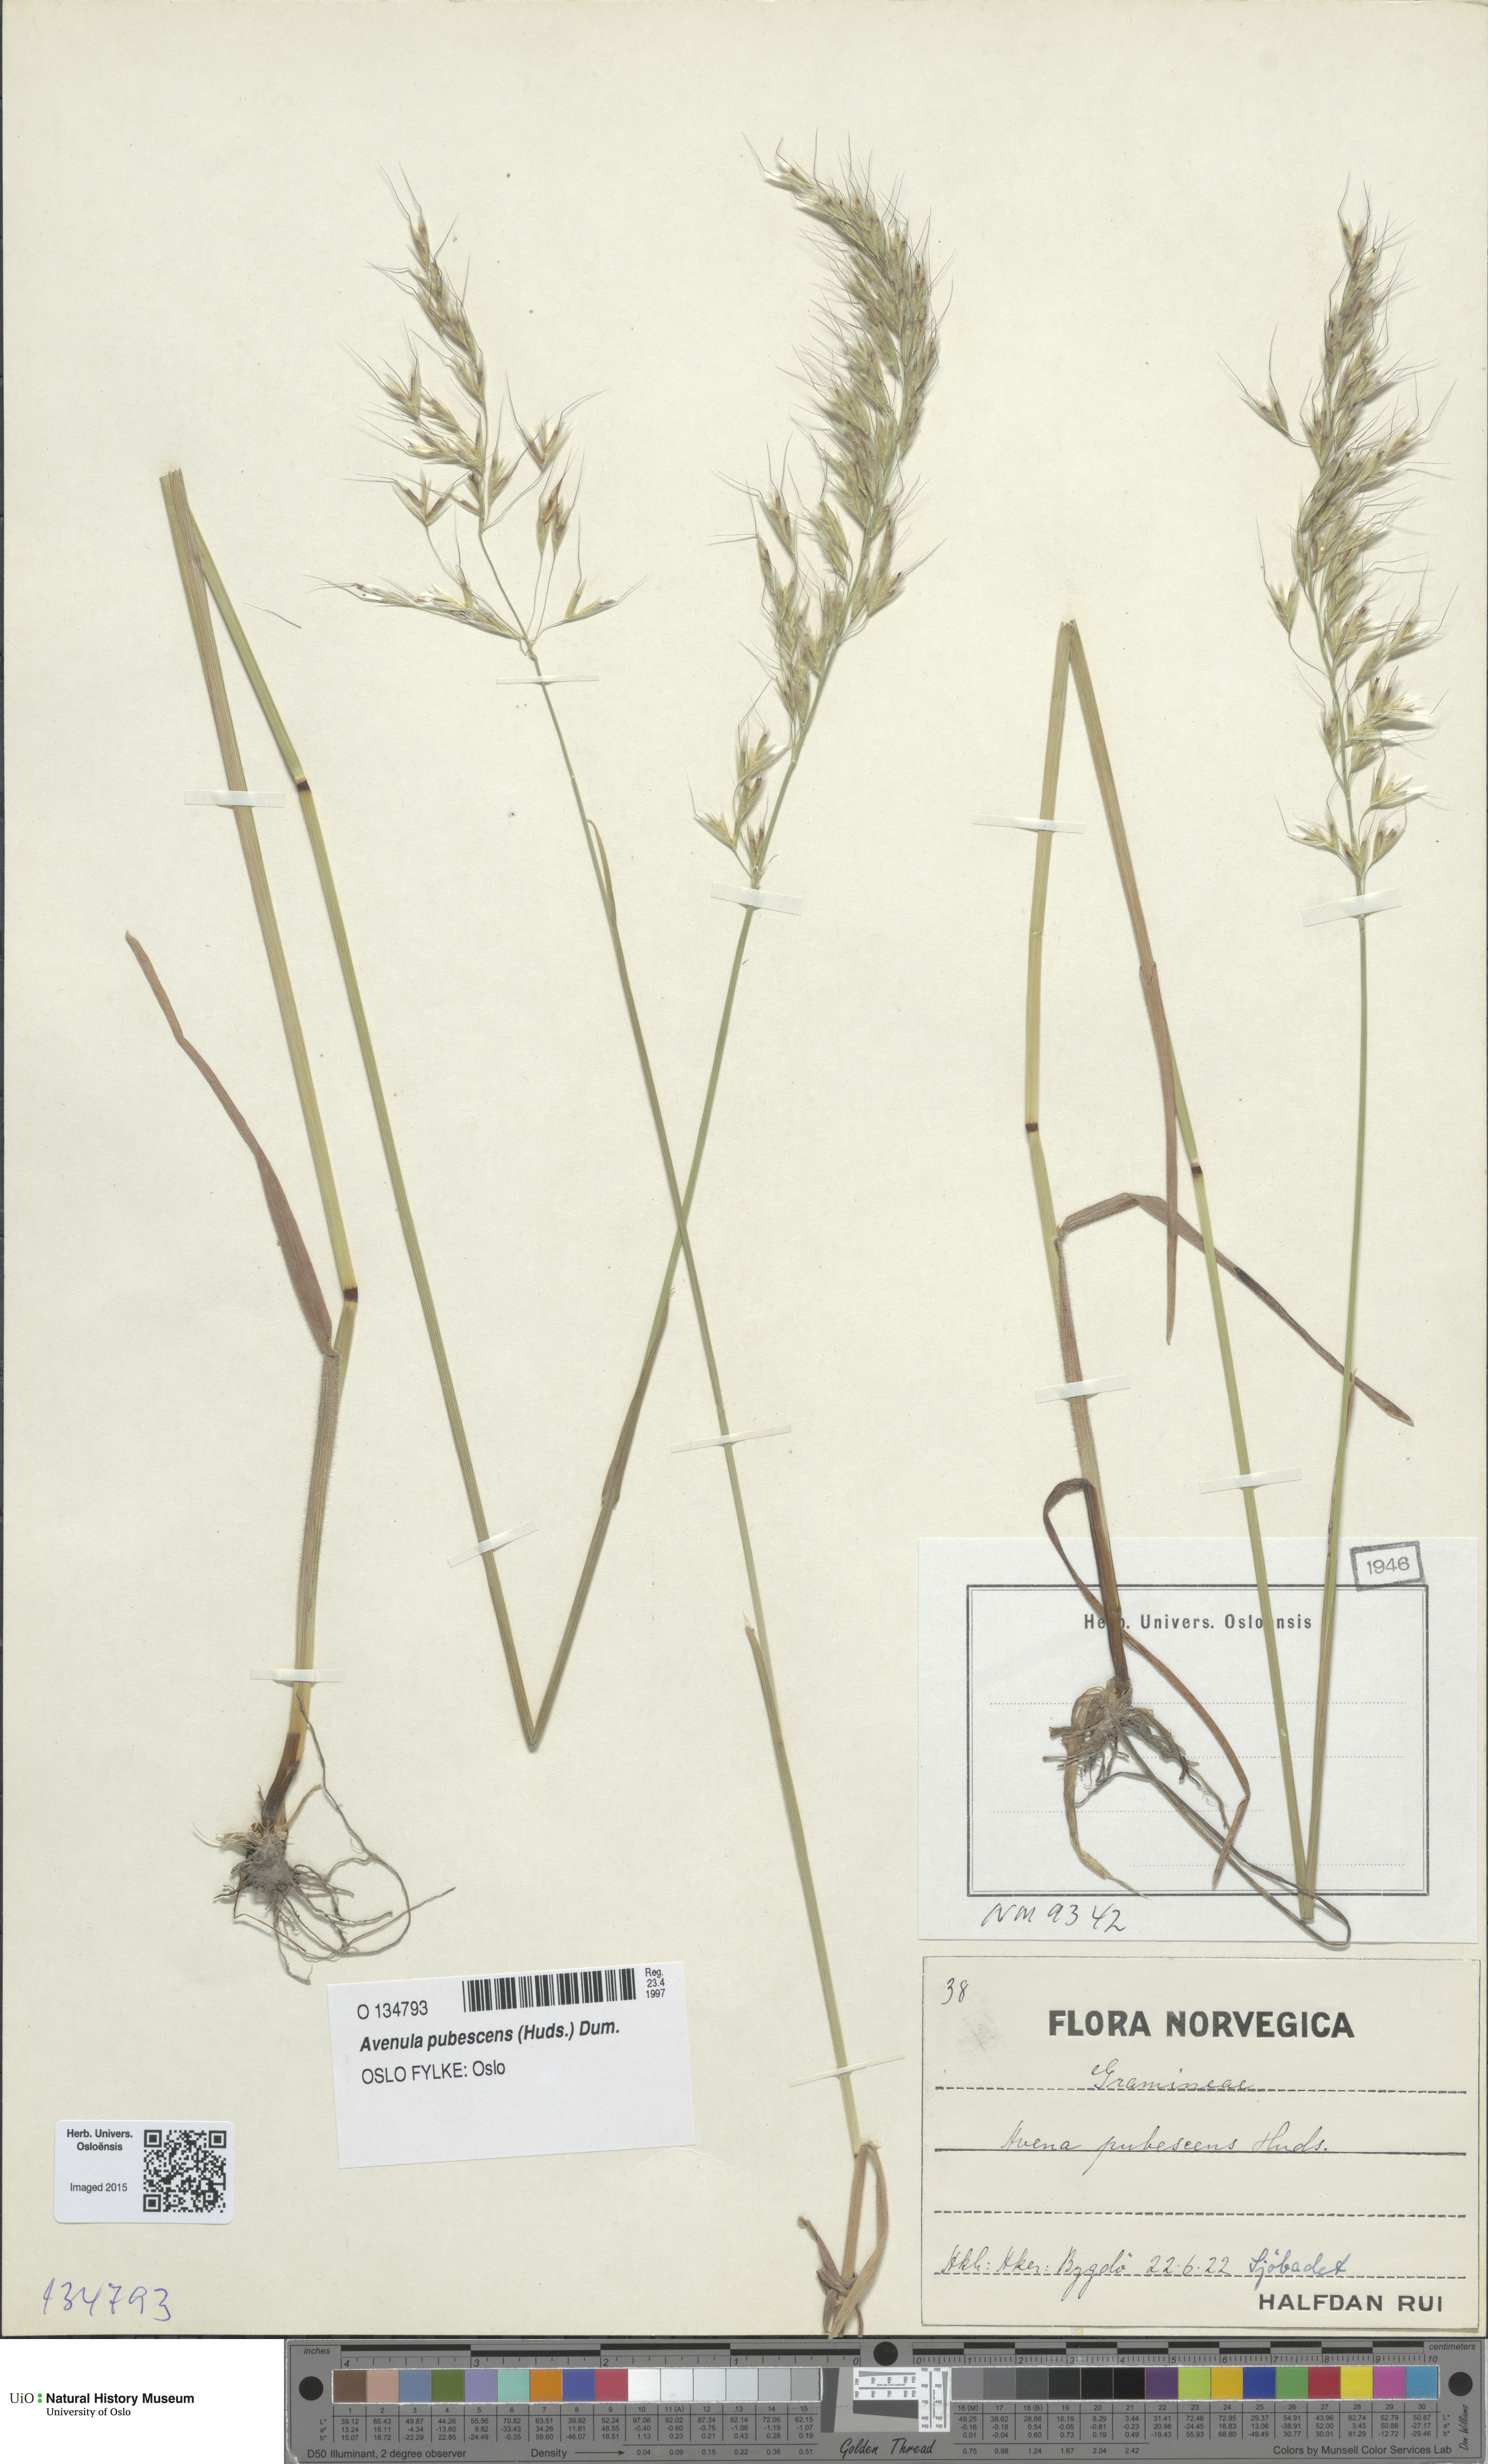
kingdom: Plantae
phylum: Tracheophyta
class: Liliopsida
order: Poales
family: Poaceae
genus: Avenula
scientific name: Avenula pubescens
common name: Downy alpine oatgrass
